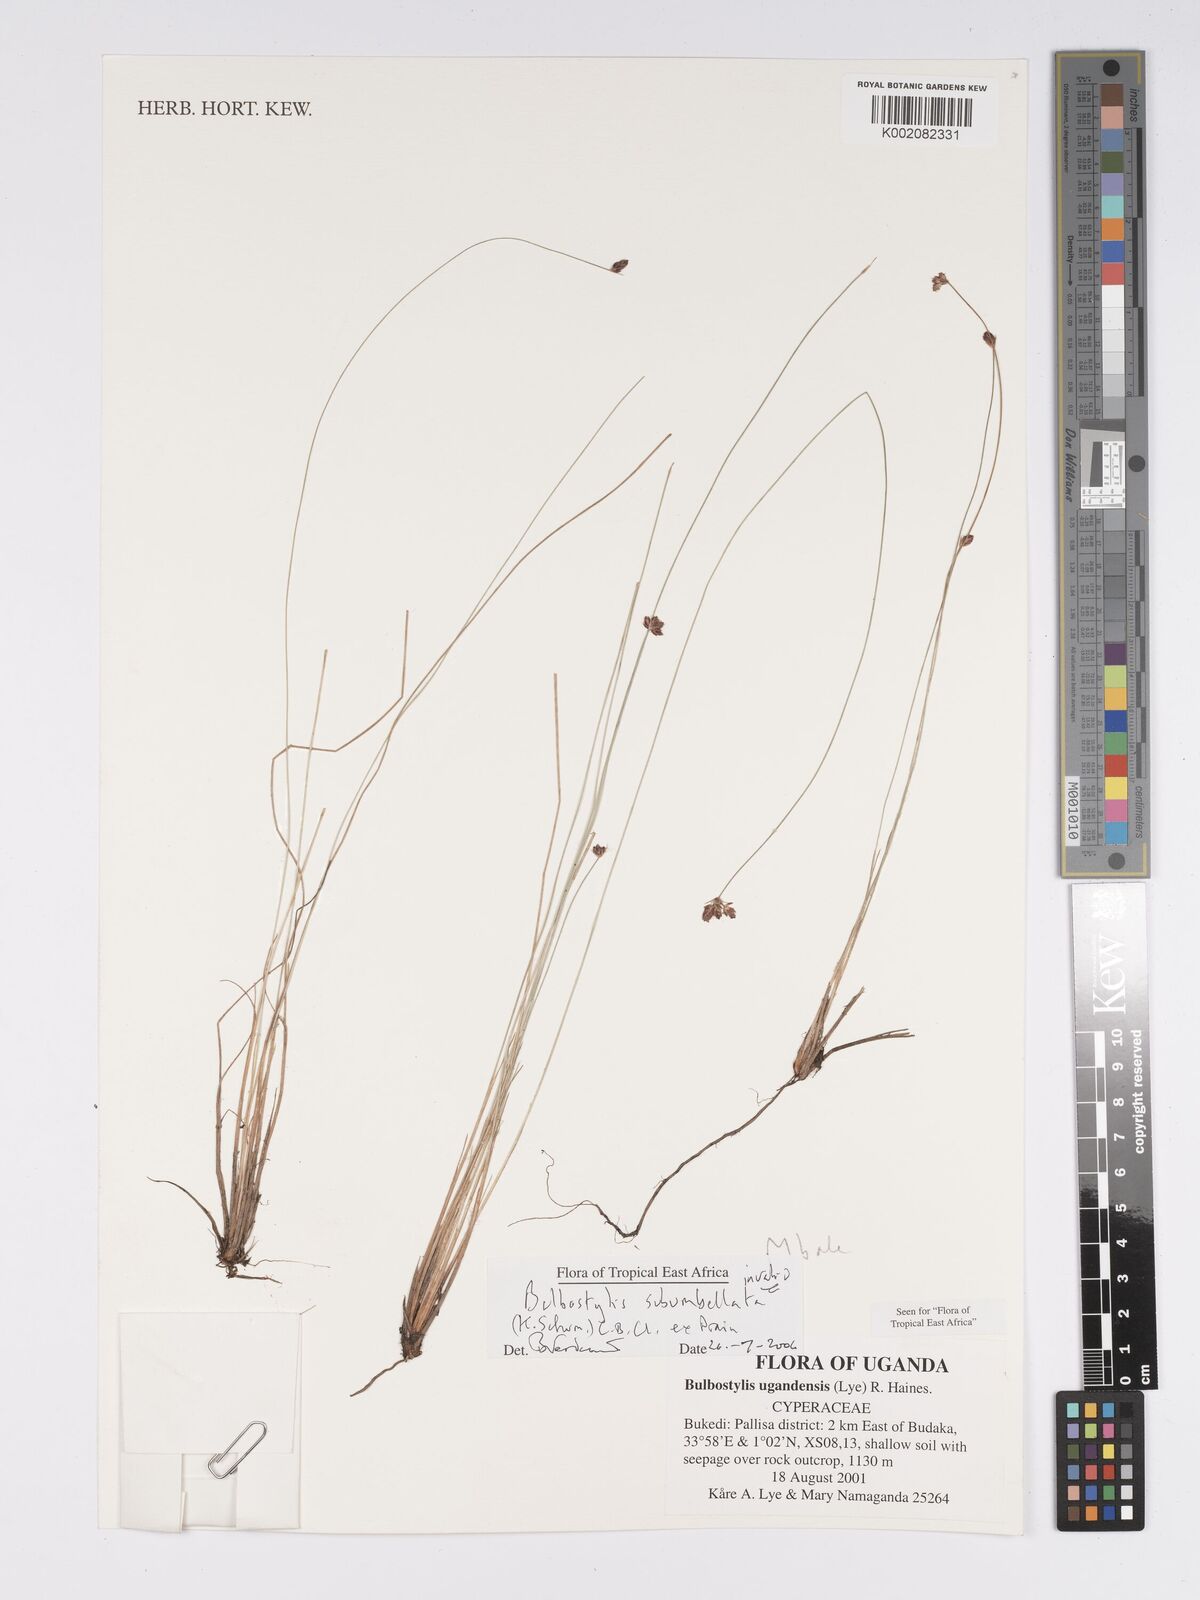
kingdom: Plantae
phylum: Tracheophyta
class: Liliopsida
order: Poales
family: Cyperaceae
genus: Bulbostylis
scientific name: Bulbostylis ugandensis
